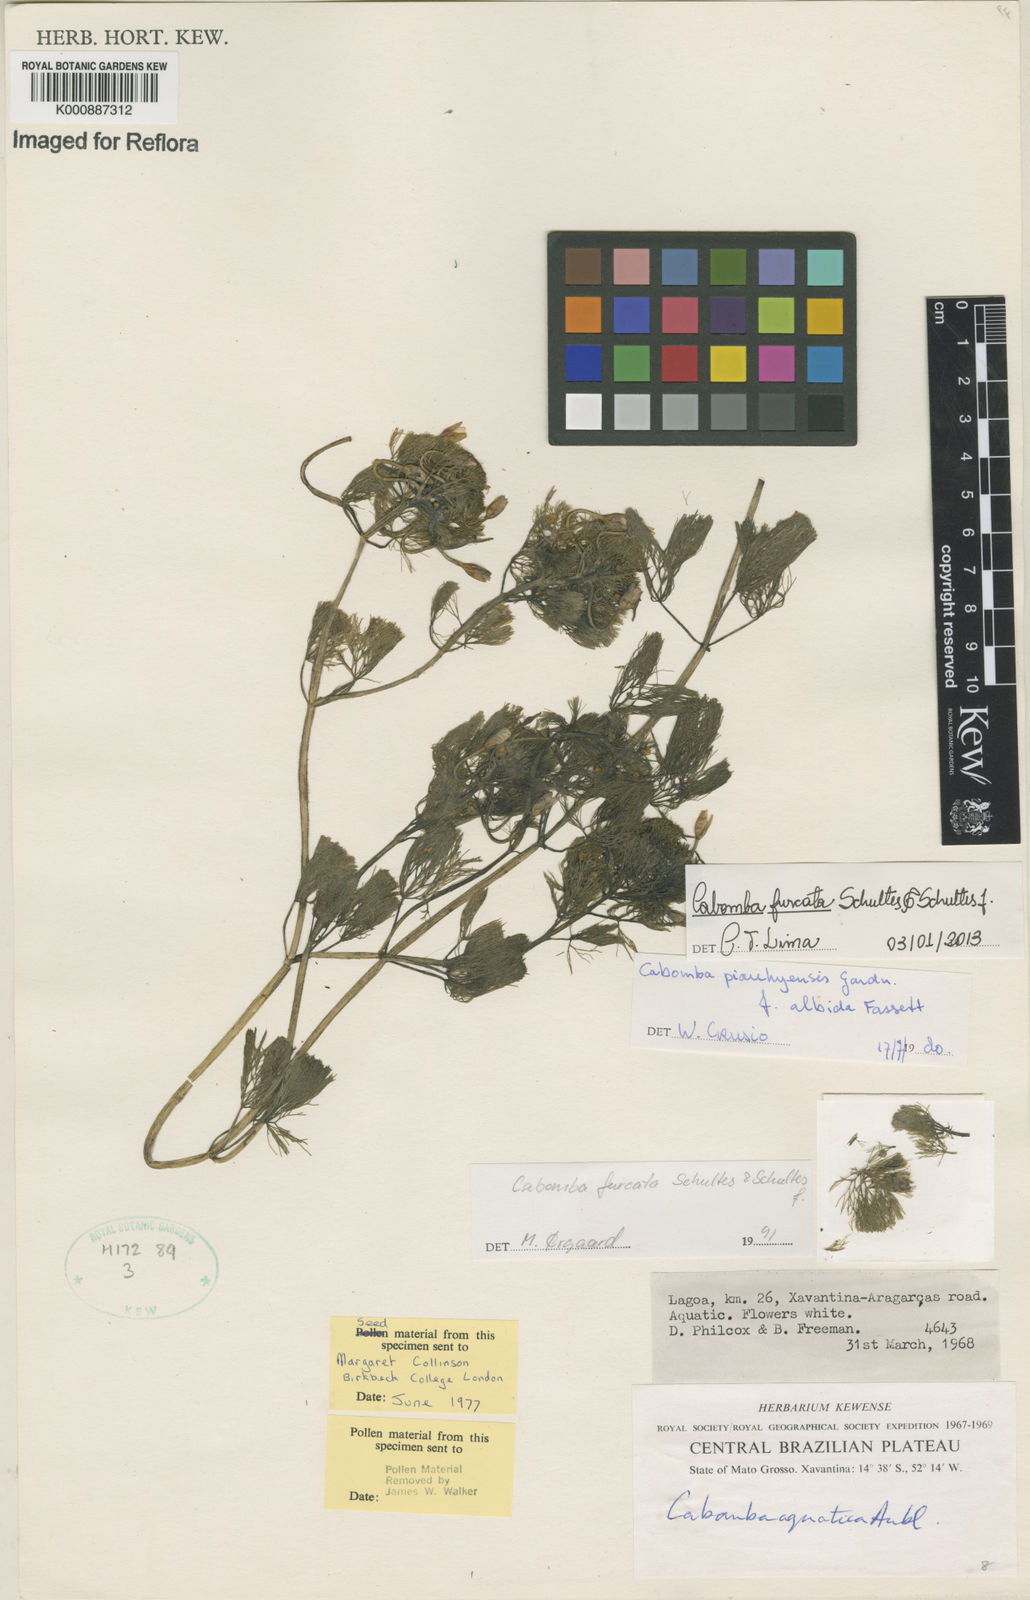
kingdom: Plantae
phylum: Tracheophyta
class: Magnoliopsida
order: Nymphaeales
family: Cabombaceae
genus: Cabomba
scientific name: Cabomba furcata
